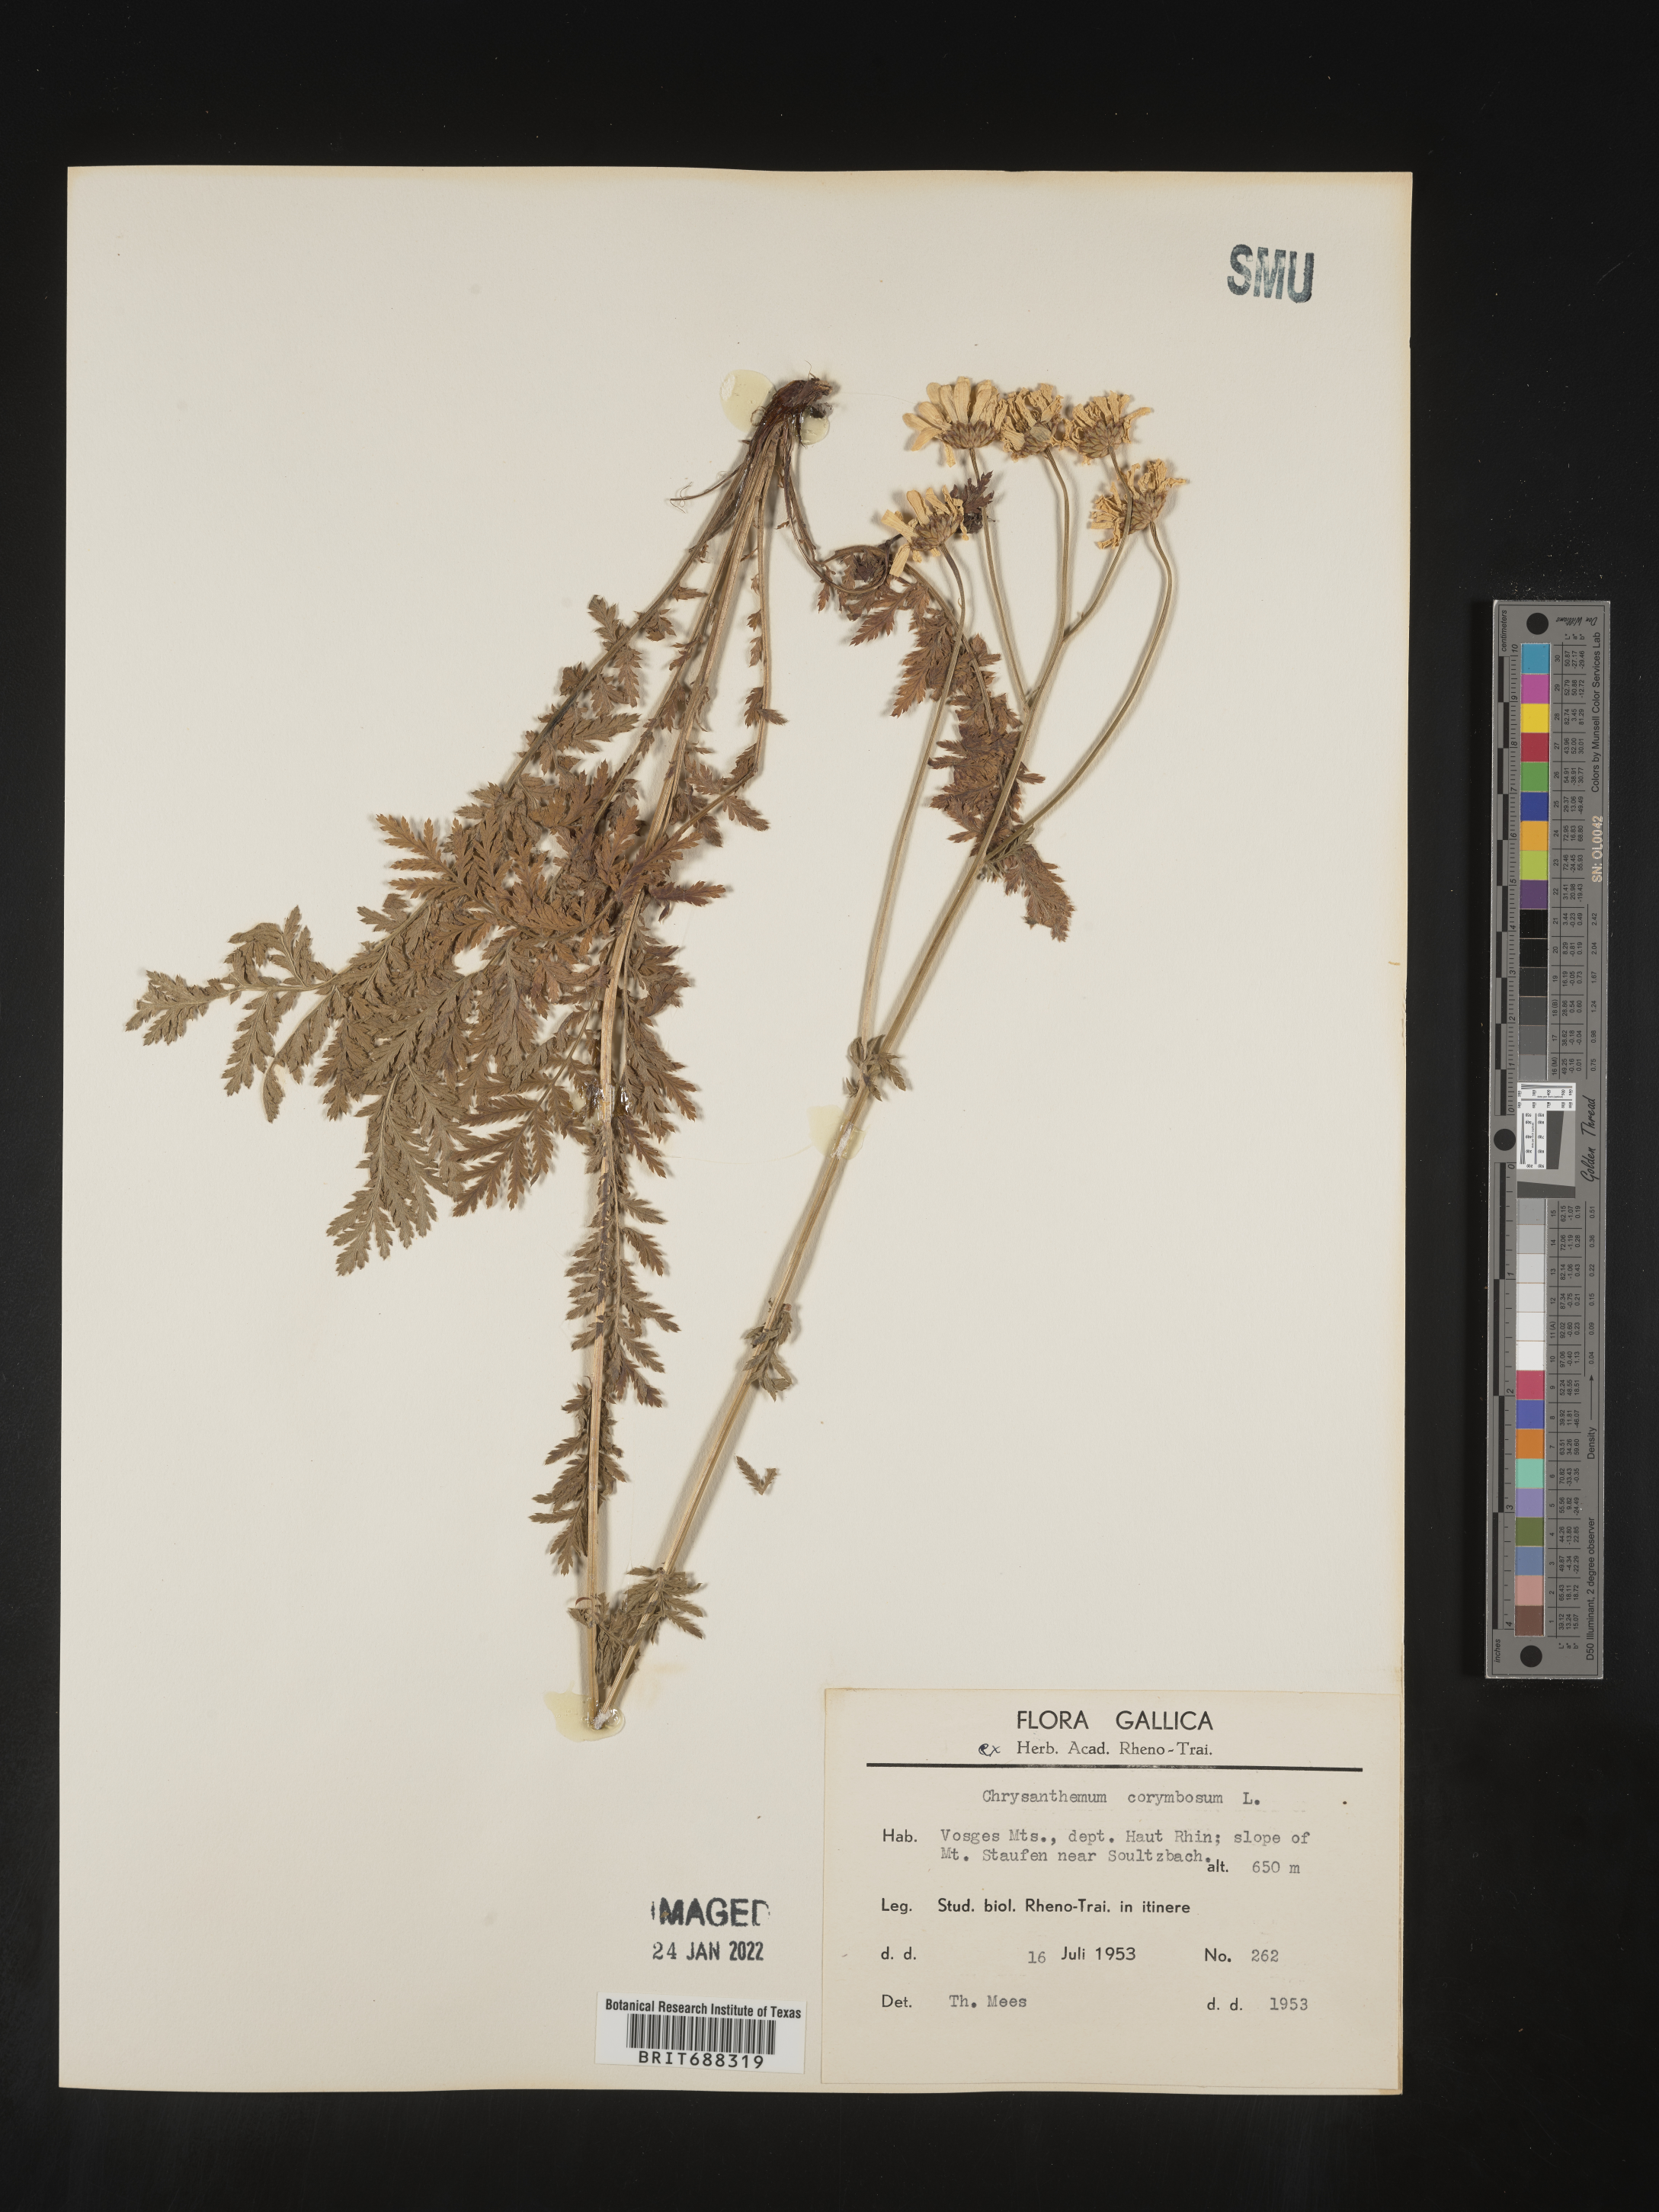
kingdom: Plantae
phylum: Tracheophyta
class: Magnoliopsida
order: Asterales
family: Asteraceae
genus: Chrysanthemum
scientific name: Chrysanthemum
